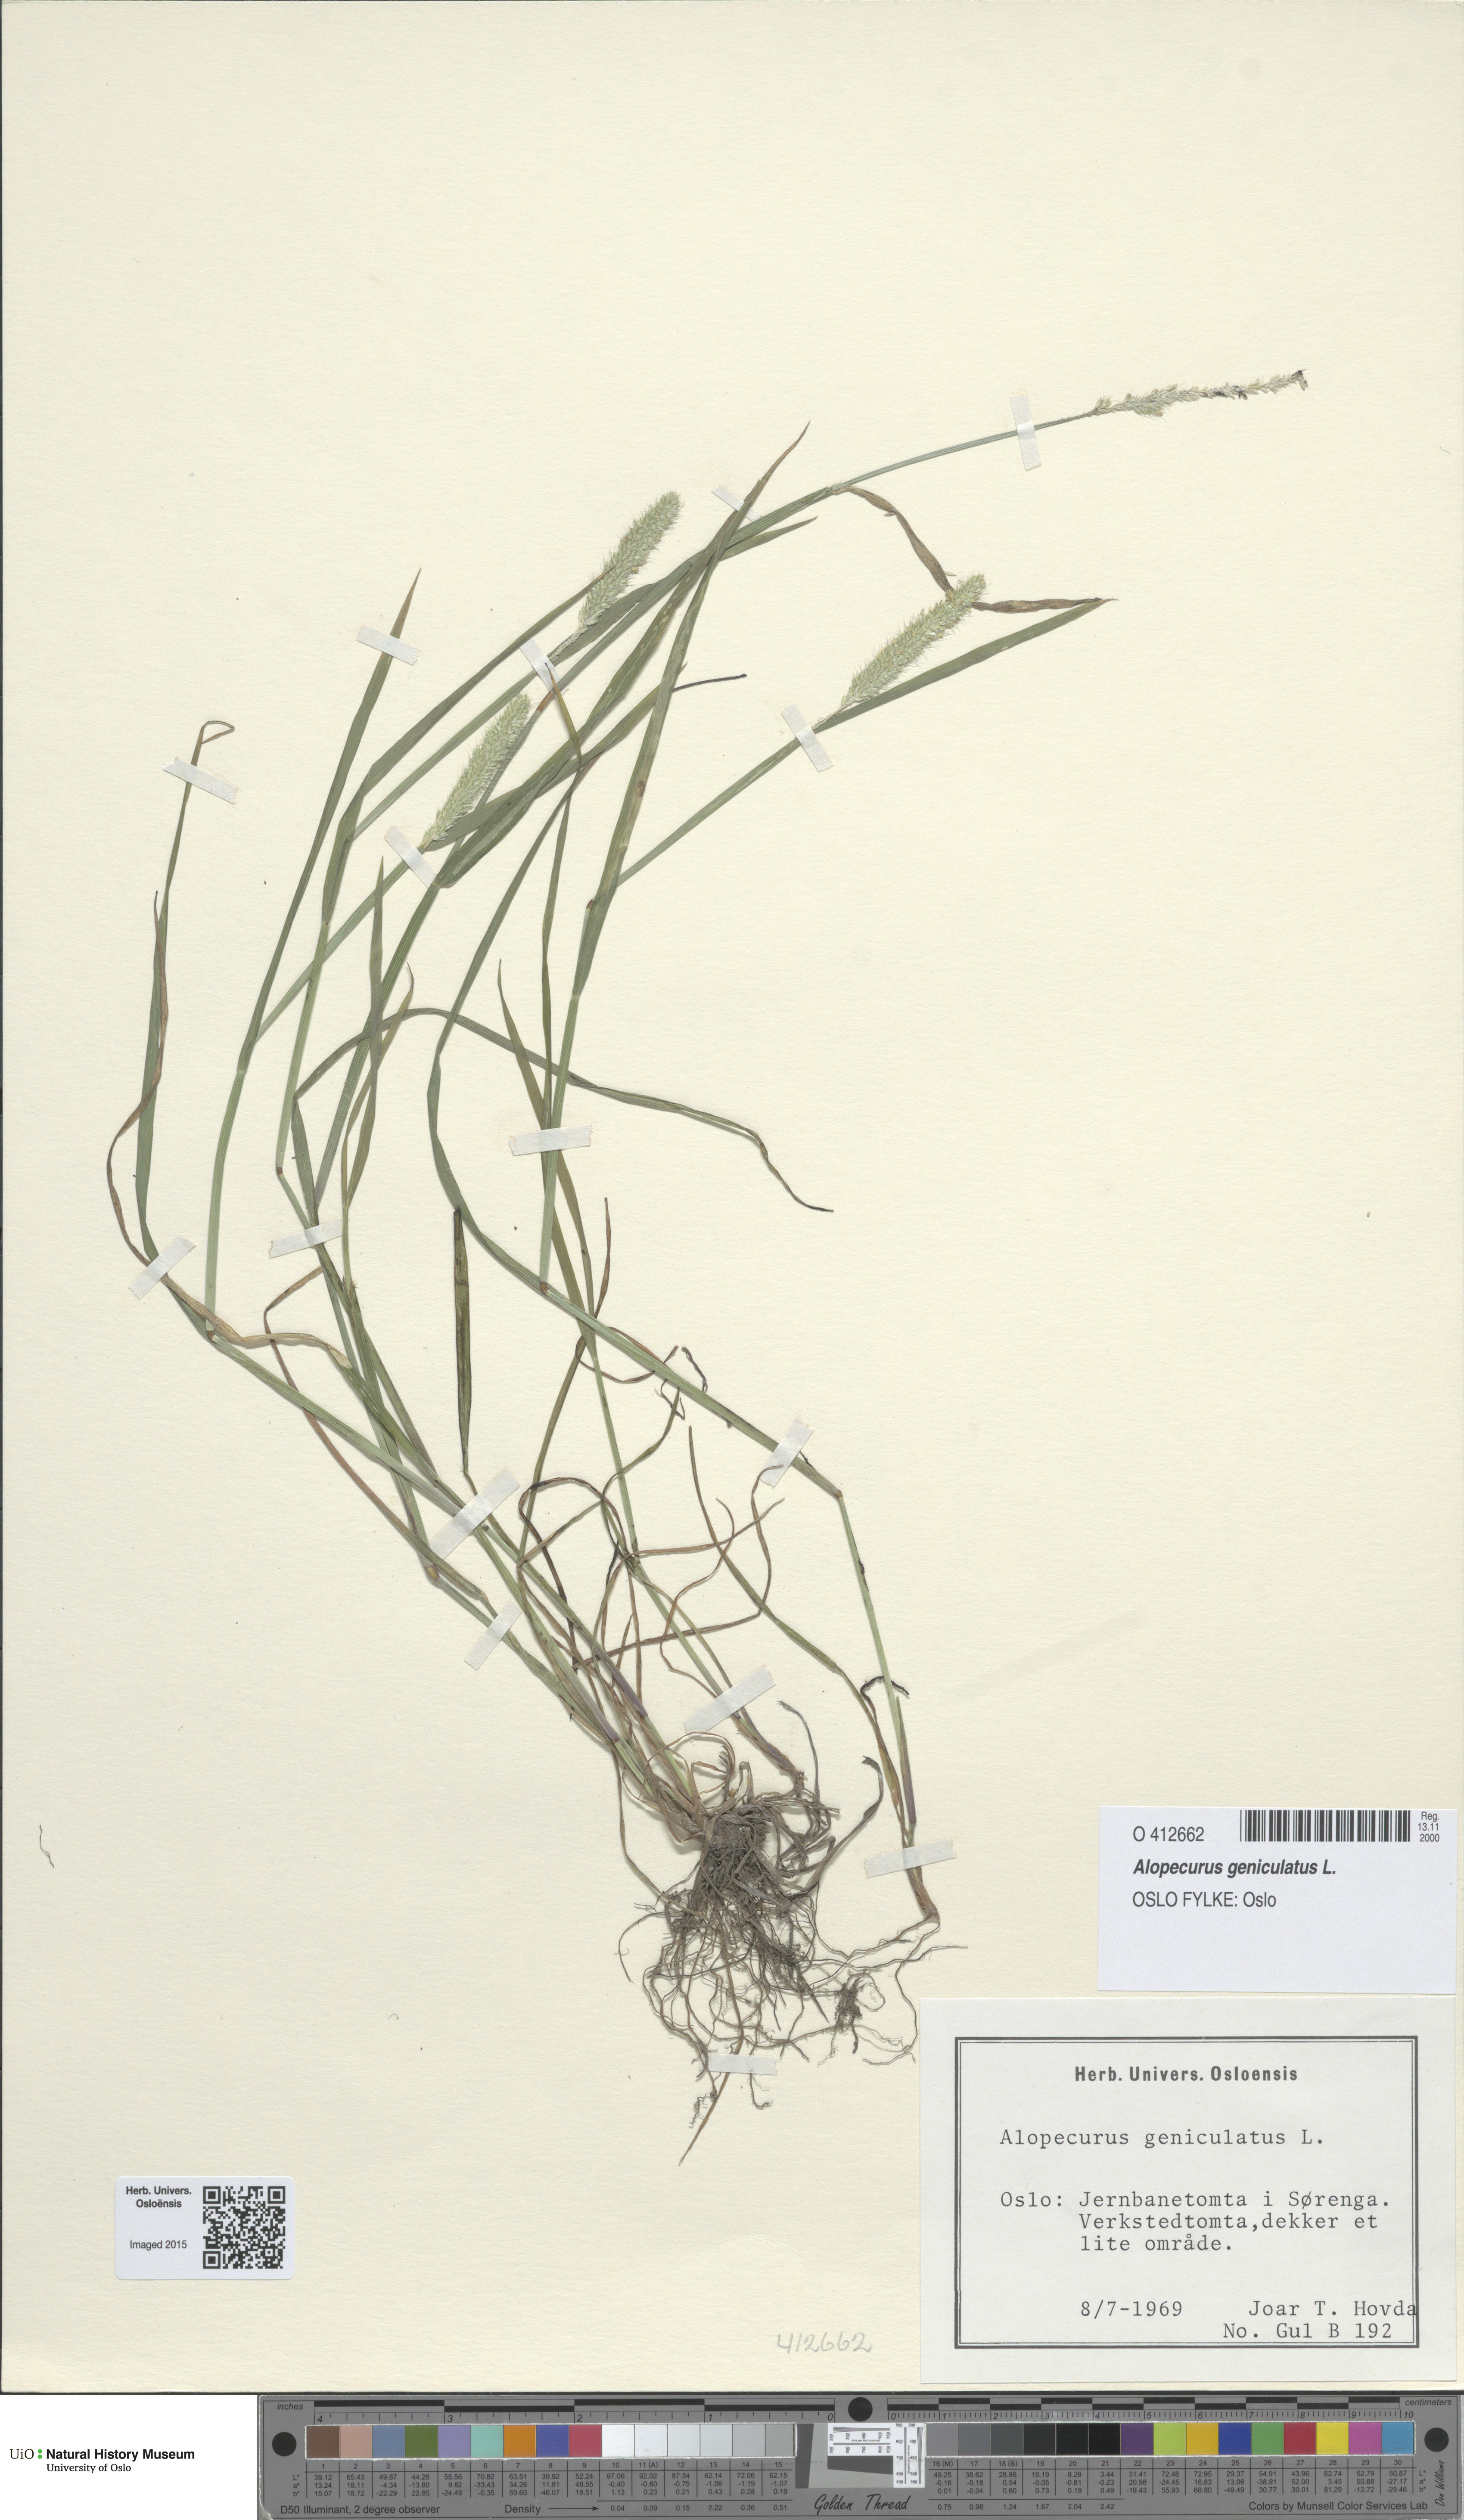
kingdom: Plantae
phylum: Tracheophyta
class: Liliopsida
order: Poales
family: Poaceae
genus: Alopecurus
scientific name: Alopecurus geniculatus
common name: Water foxtail
